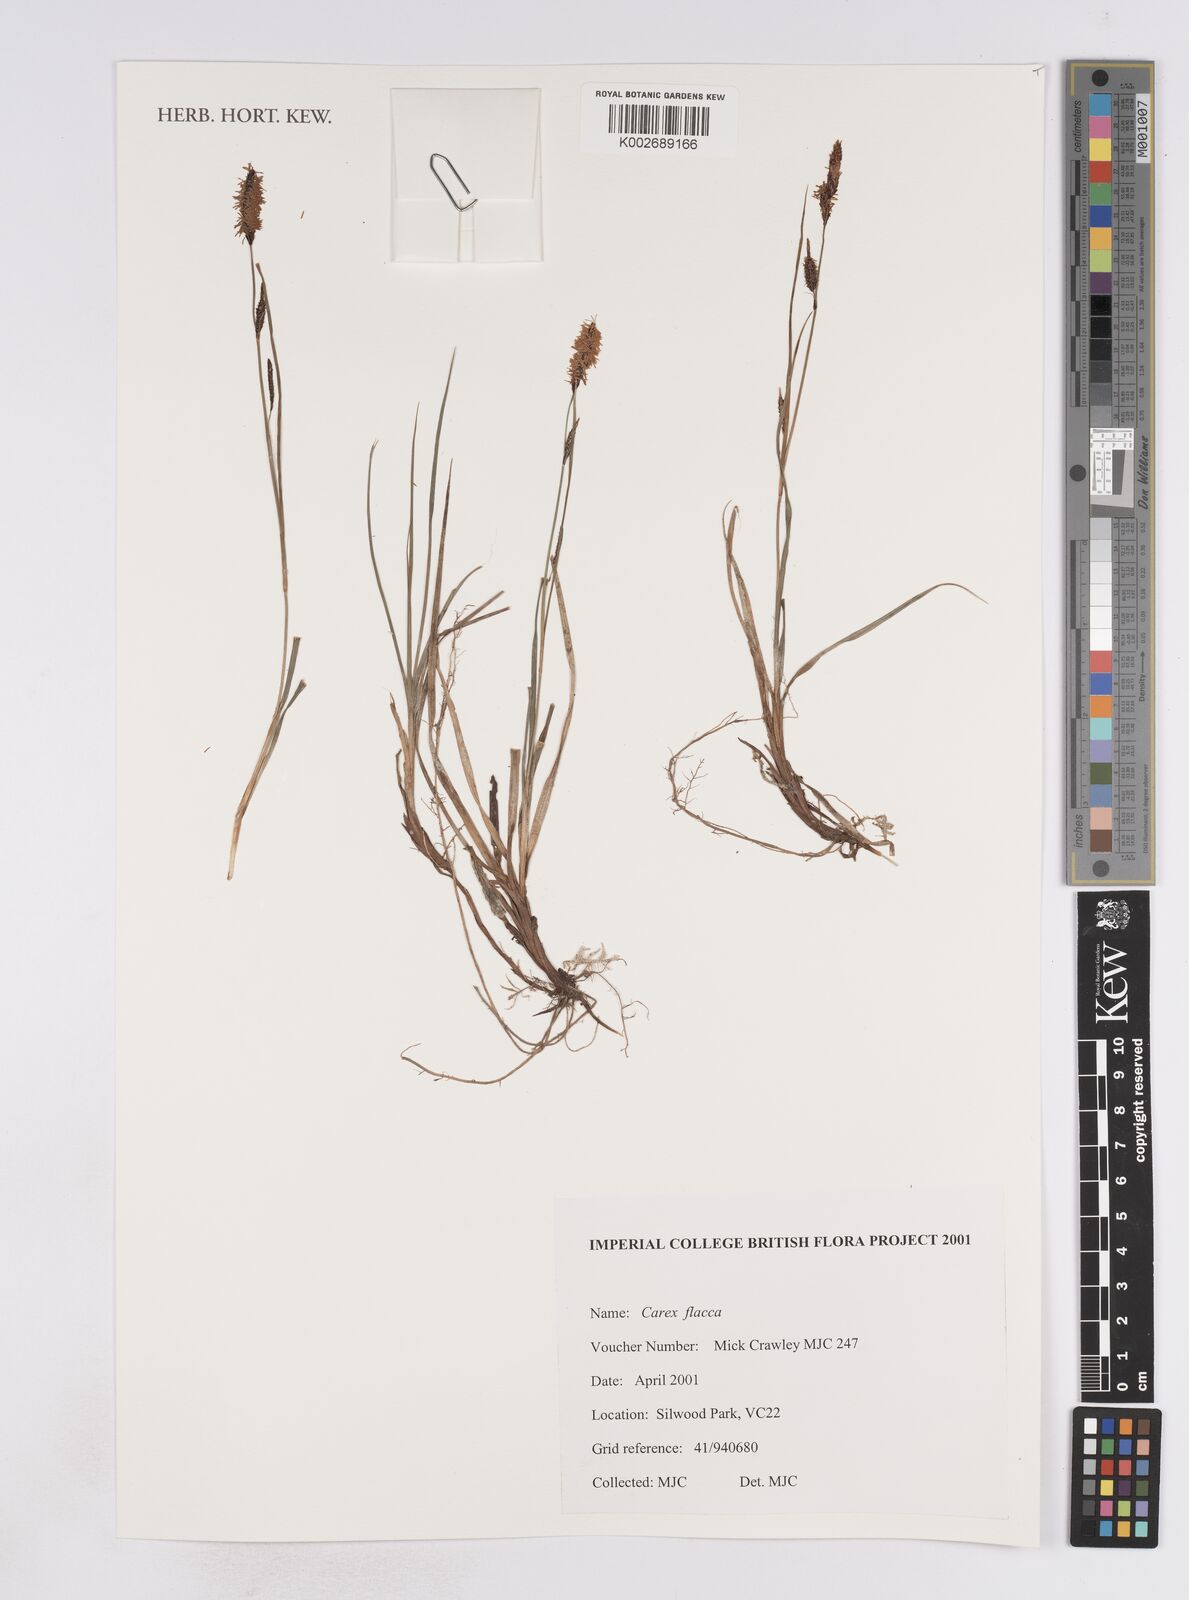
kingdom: Plantae
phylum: Tracheophyta
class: Liliopsida
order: Poales
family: Cyperaceae
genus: Carex
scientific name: Carex flacca
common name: Glaucous sedge
